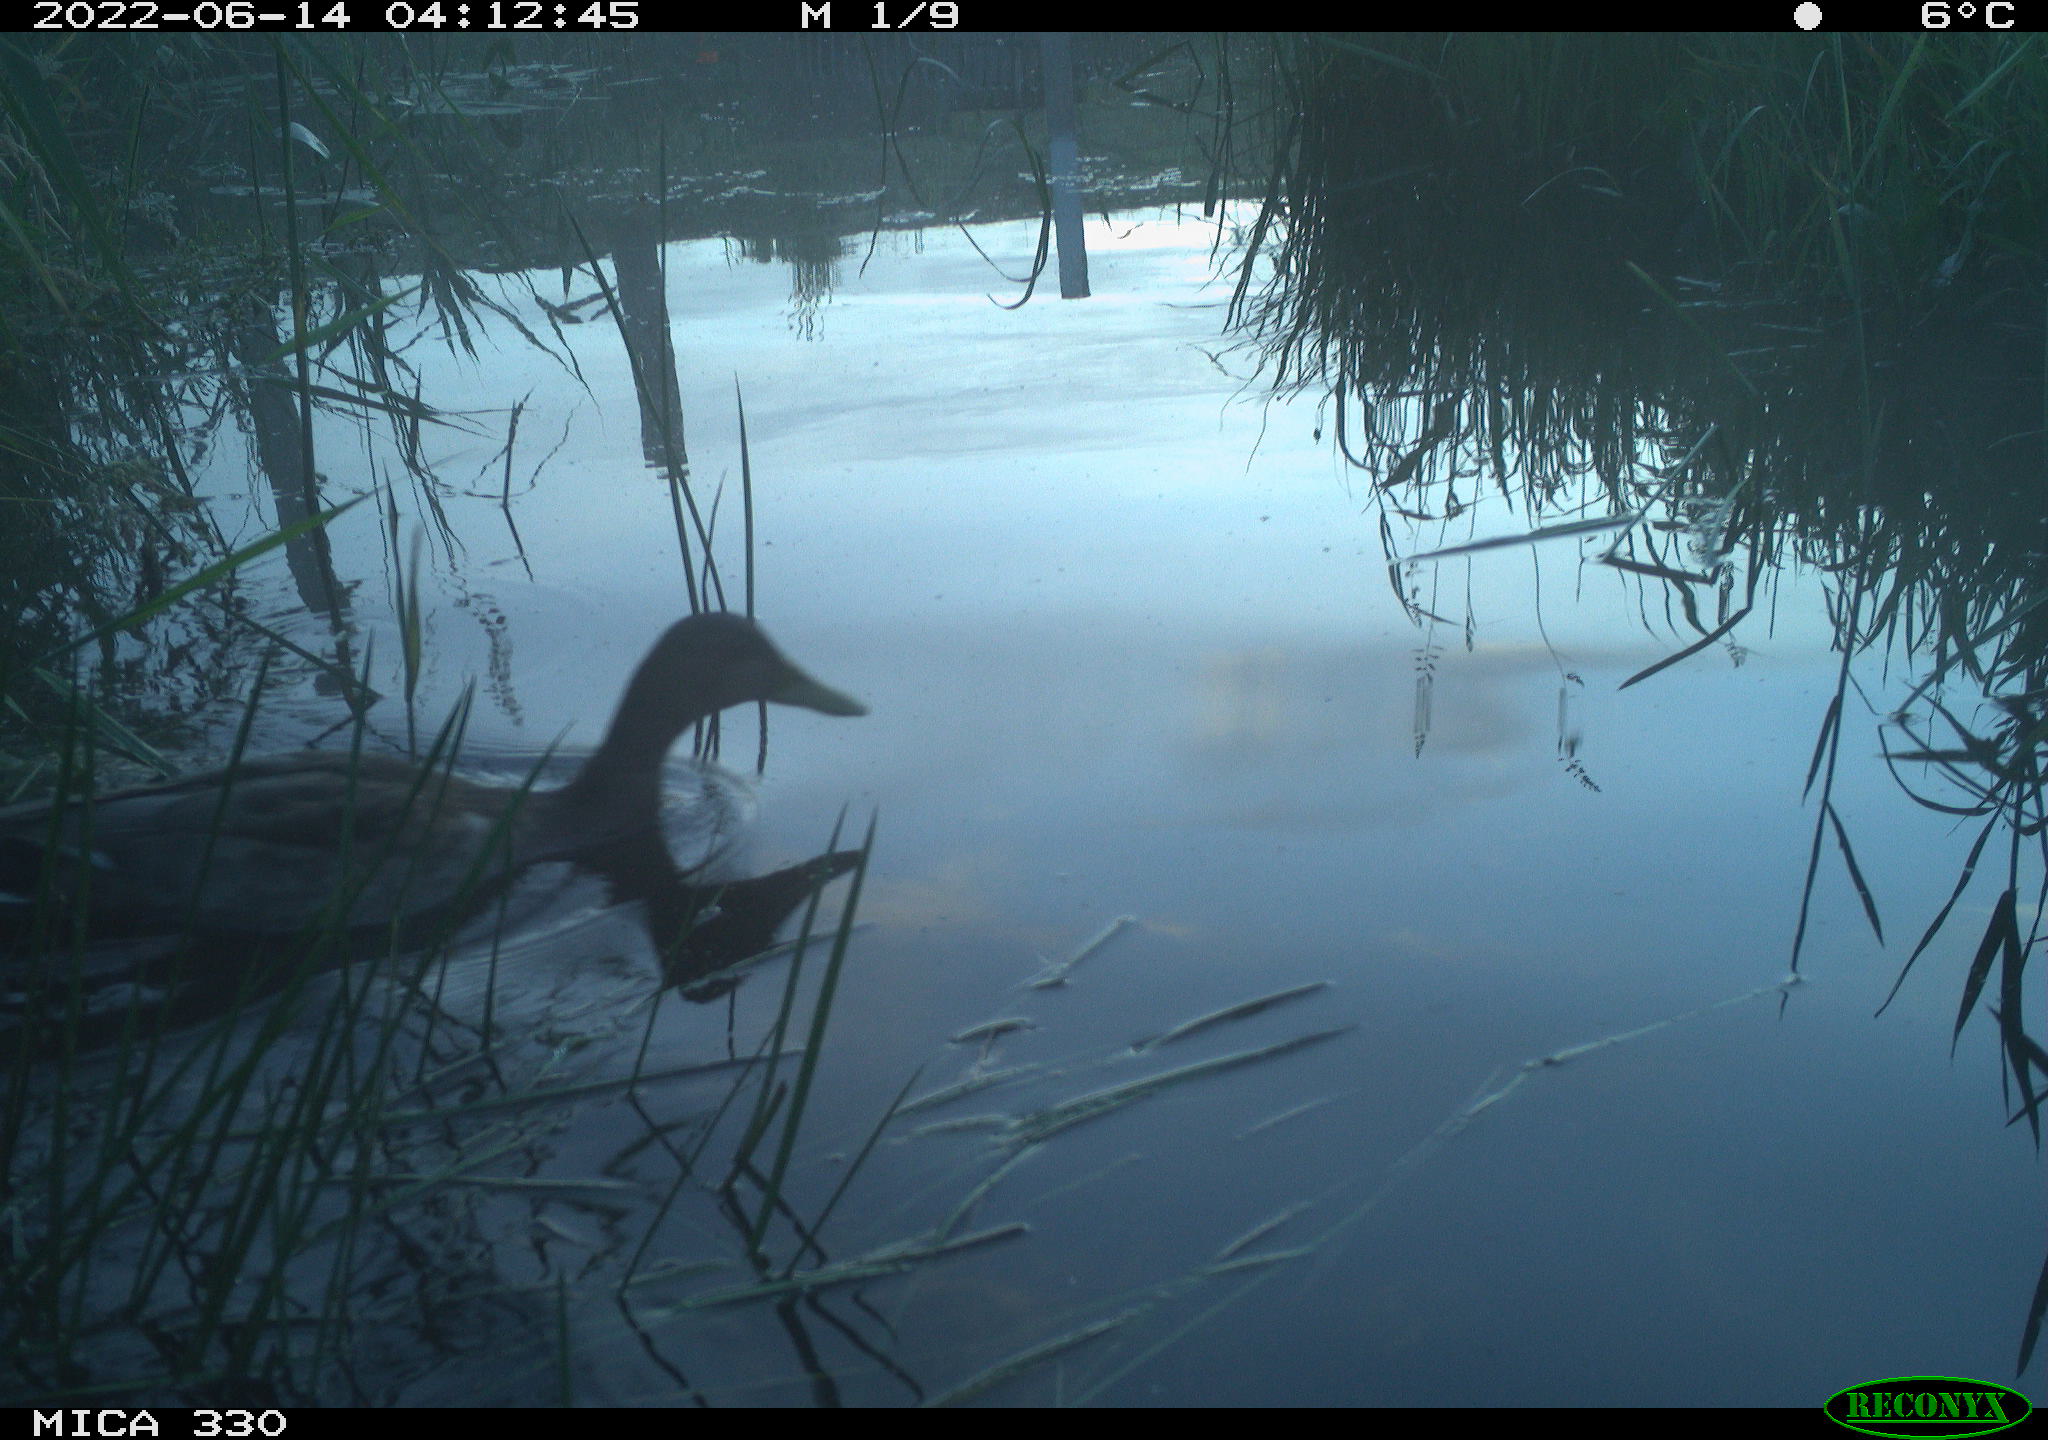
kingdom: Animalia
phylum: Chordata
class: Aves
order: Gruiformes
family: Rallidae
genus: Fulica
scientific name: Fulica atra
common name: Eurasian coot
